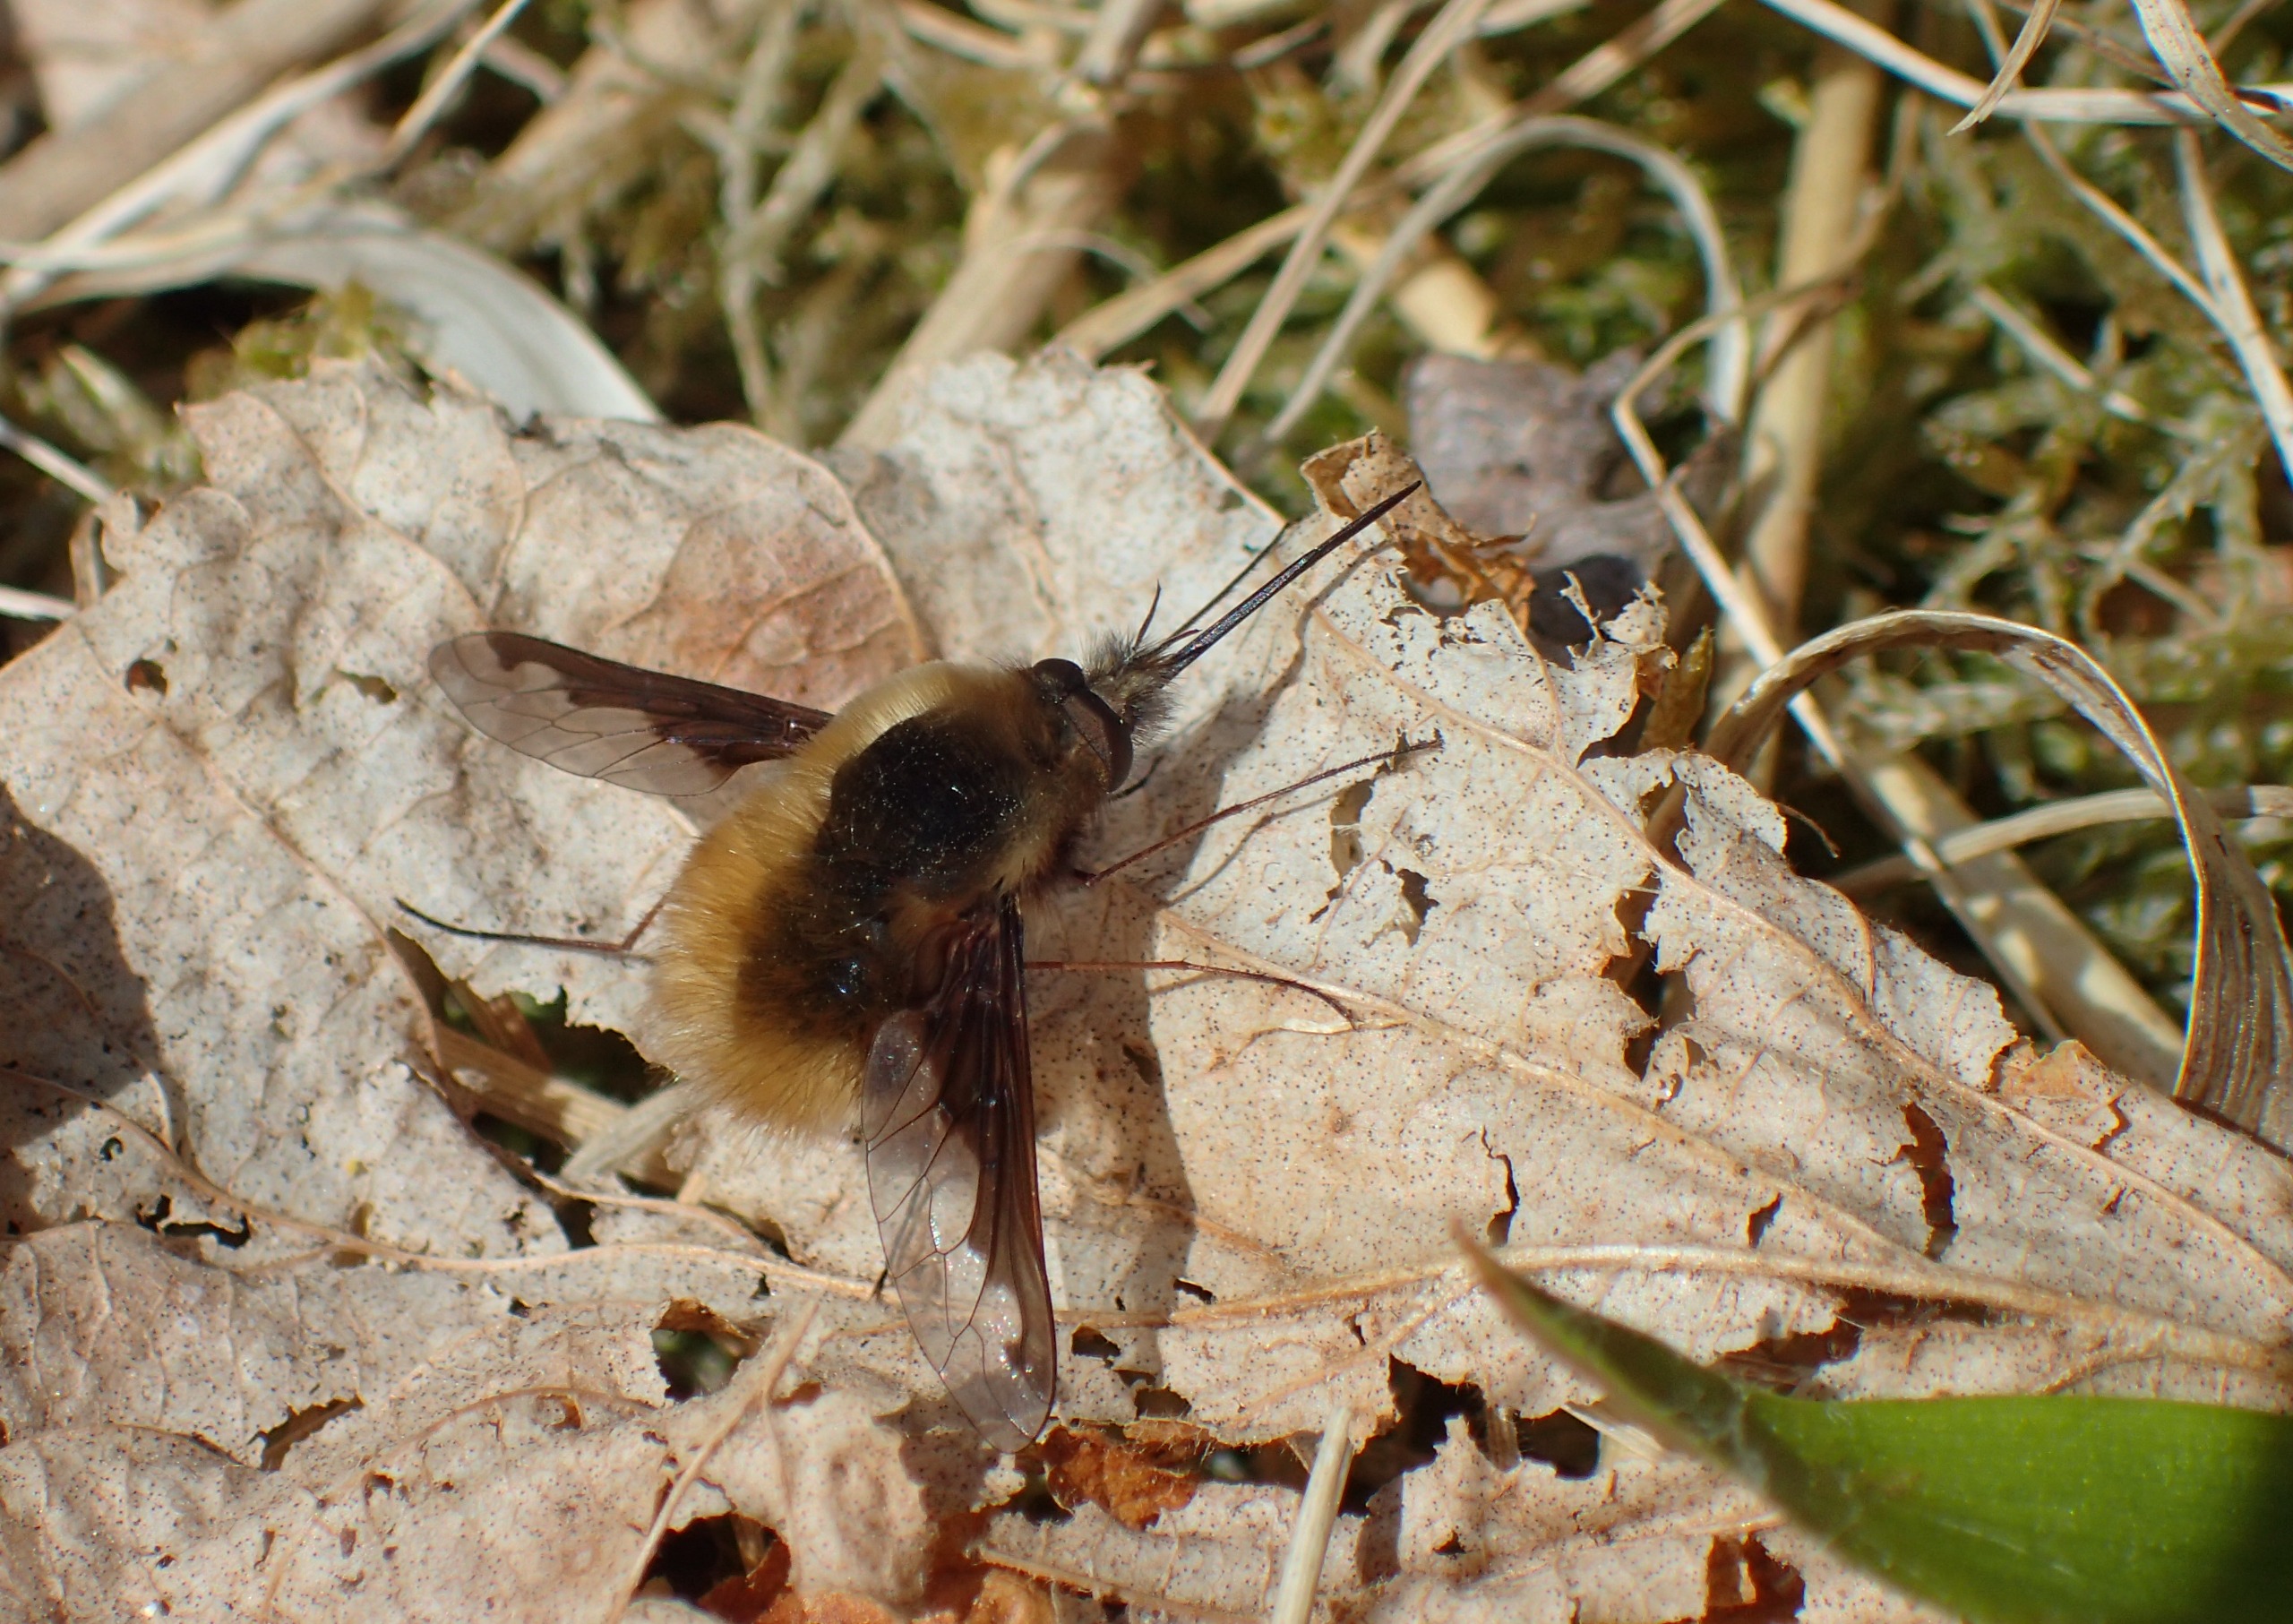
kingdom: Animalia
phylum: Arthropoda
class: Insecta
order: Diptera
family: Bombyliidae
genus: Bombylius
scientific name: Bombylius major
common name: Stor humleflue
